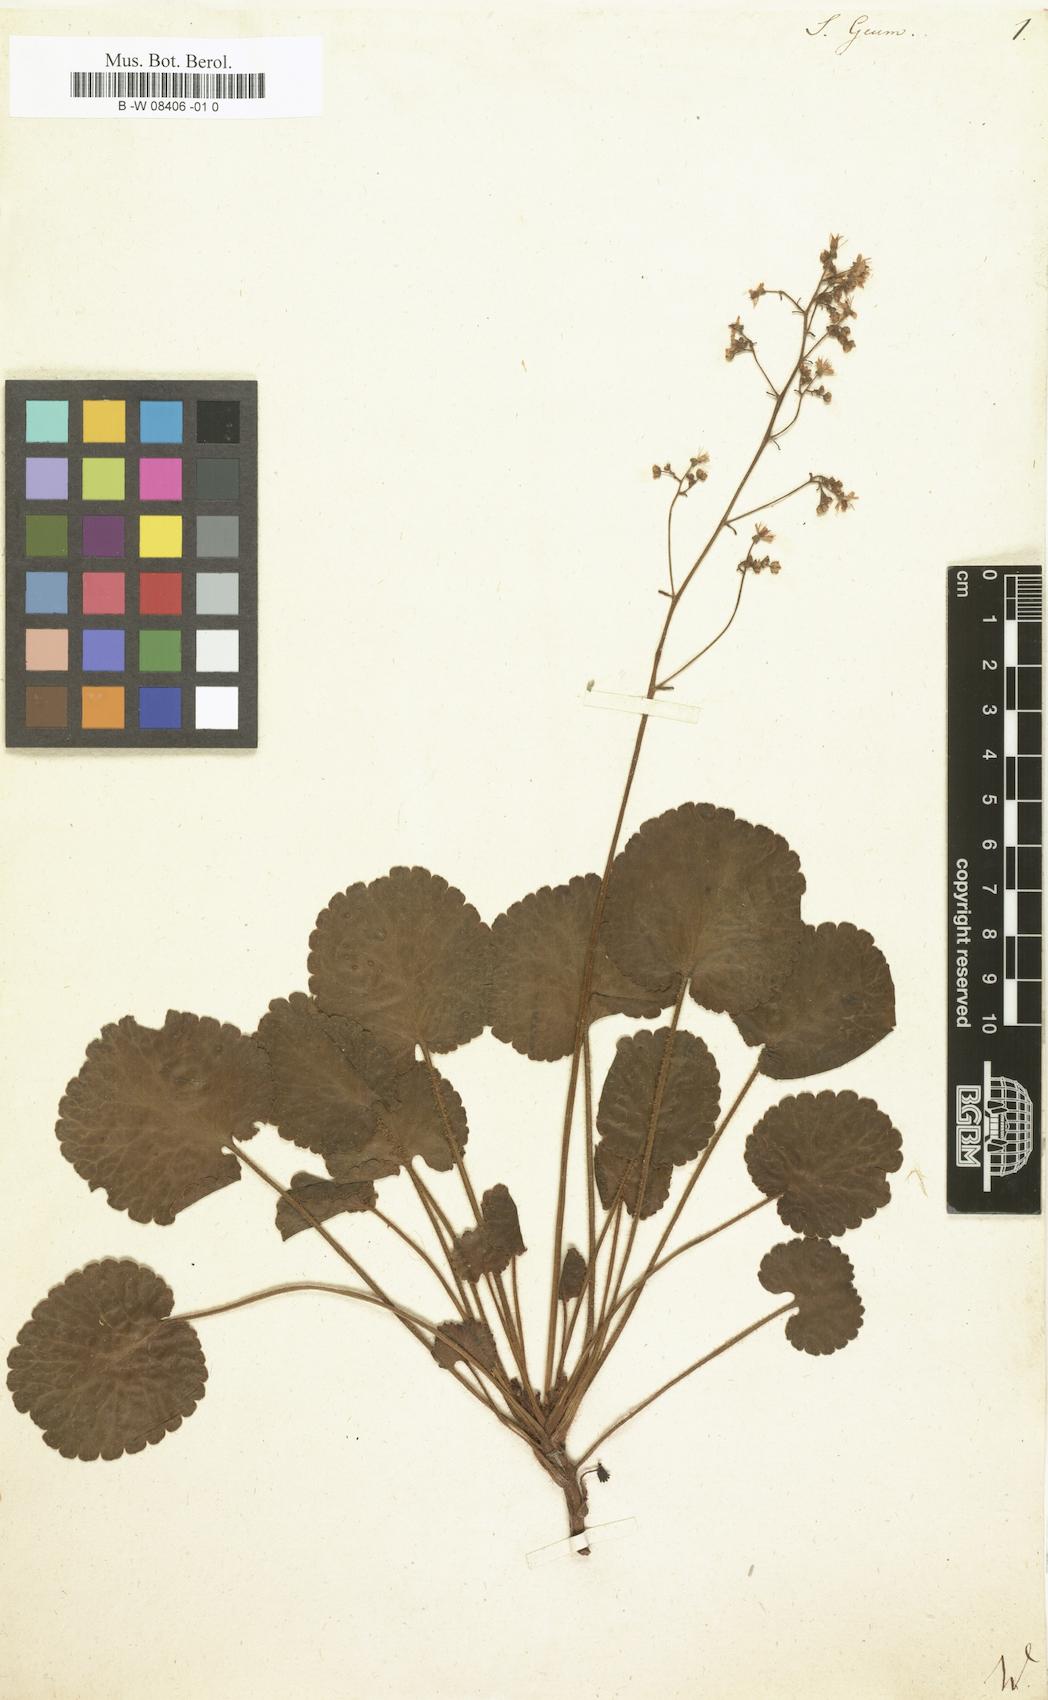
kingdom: Plantae
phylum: Tracheophyta
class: Magnoliopsida
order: Saxifragales
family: Saxifragaceae
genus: Saxifraga
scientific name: Saxifraga geum
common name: Geum saxifrage
